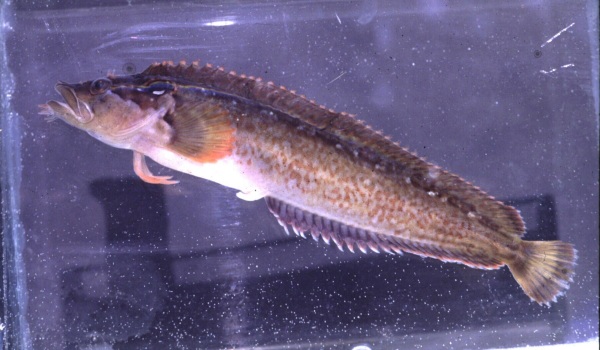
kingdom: Animalia
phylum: Chordata
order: Perciformes
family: Clinidae
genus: Cirrhibarbis
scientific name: Cirrhibarbis capensis
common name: Barbelled klipfish
